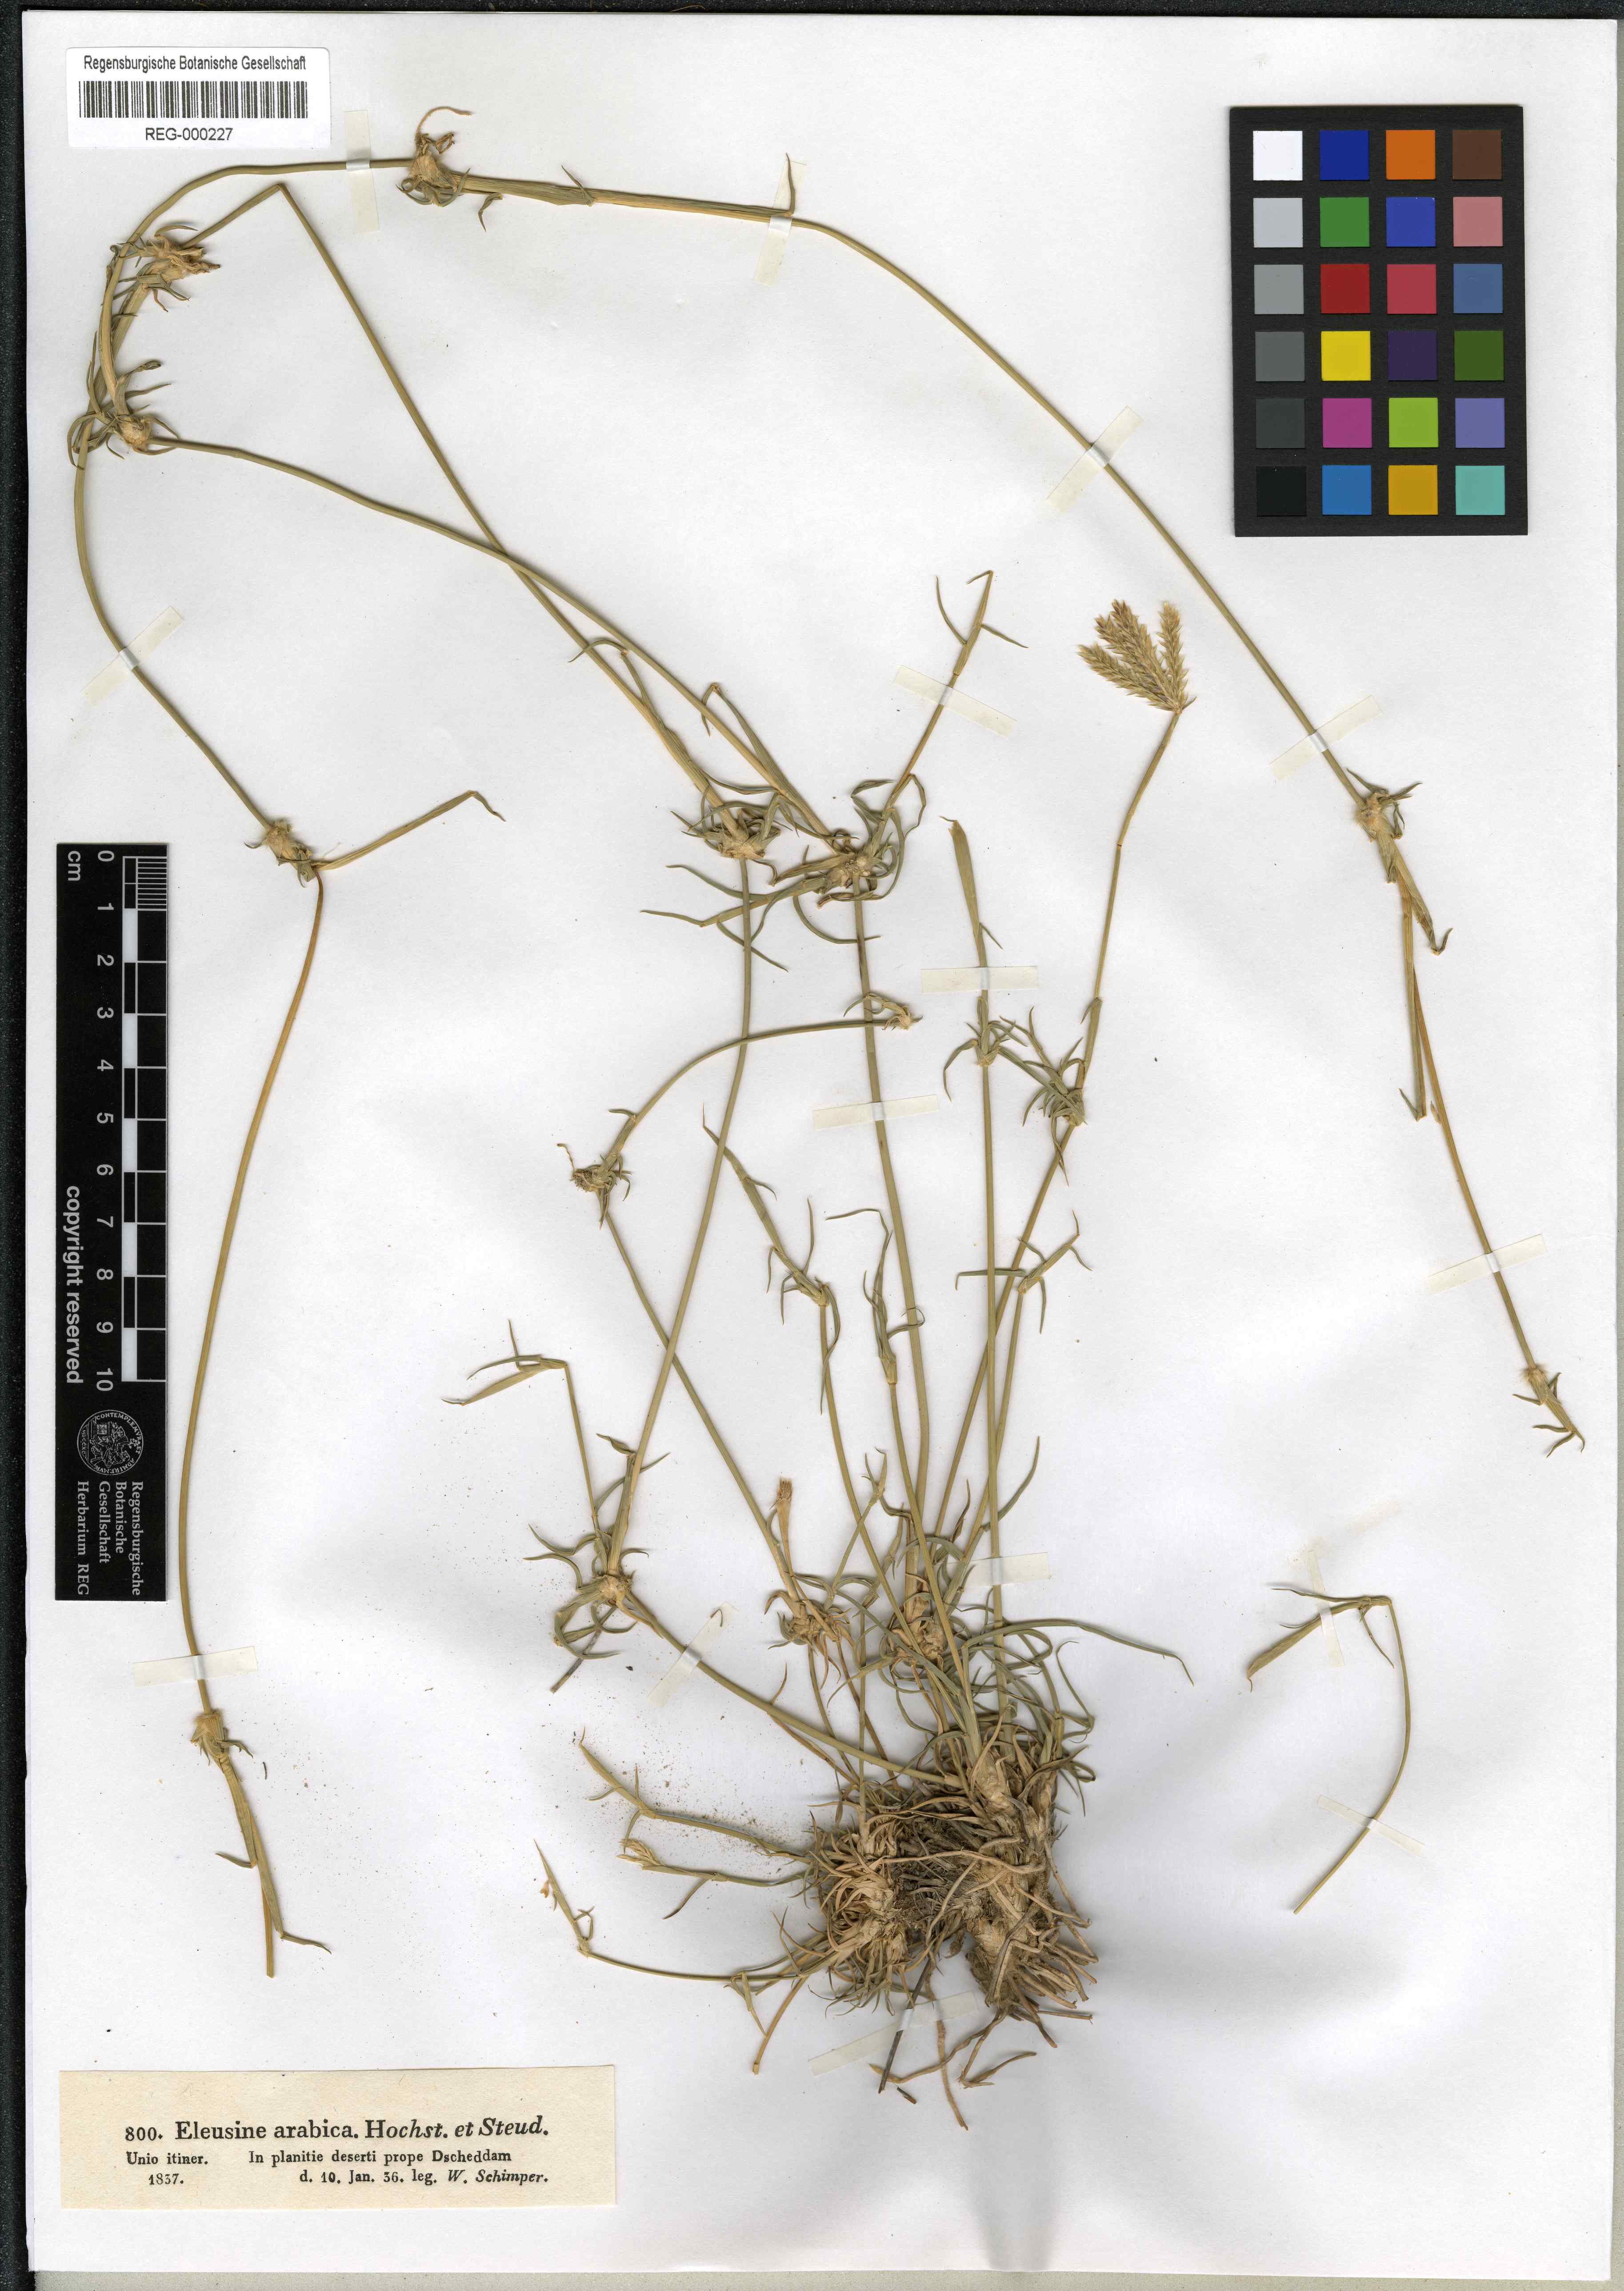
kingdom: Plantae
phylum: Tracheophyta
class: Liliopsida
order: Poales
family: Poaceae
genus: Chloris
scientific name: Chloris flagellifera
